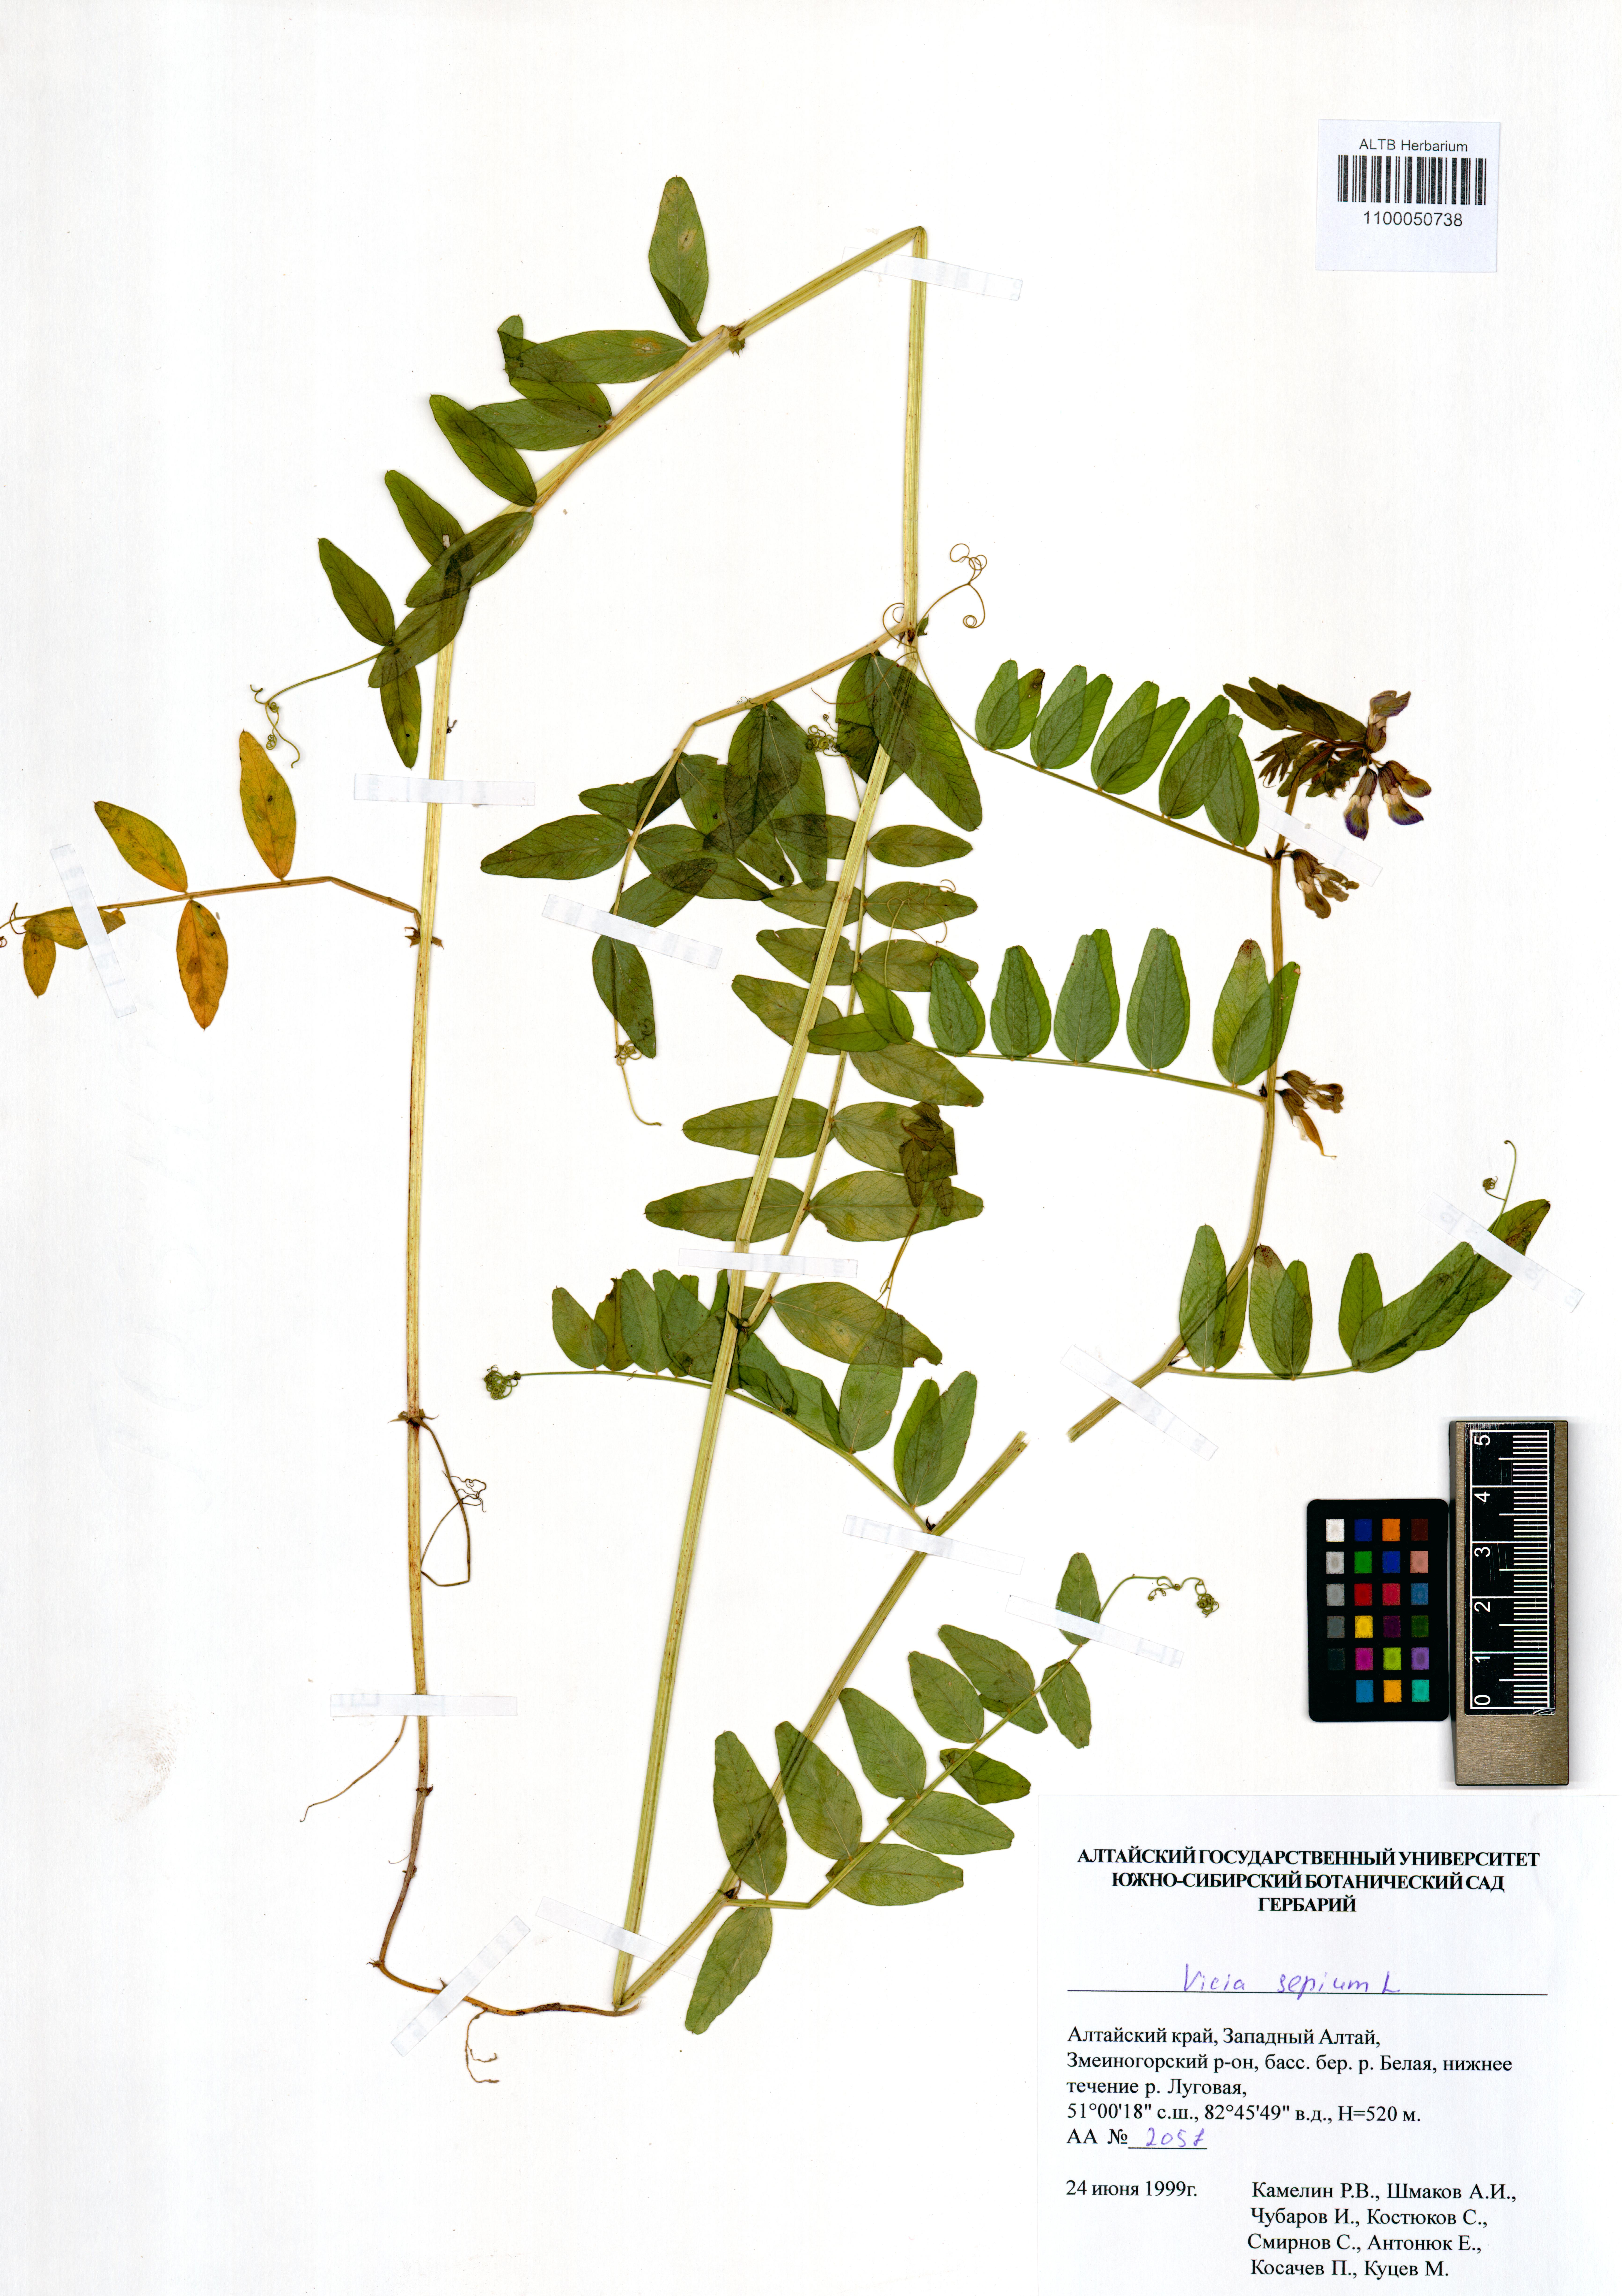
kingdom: Plantae
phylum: Tracheophyta
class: Magnoliopsida
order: Fabales
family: Fabaceae
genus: Vicia
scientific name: Vicia sepium
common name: Bush vetch
